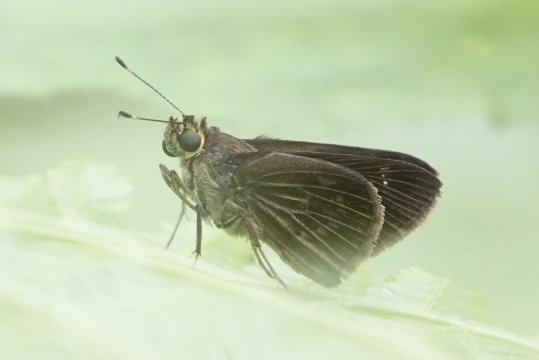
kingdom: Animalia
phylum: Arthropoda
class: Insecta
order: Lepidoptera
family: Hesperiidae
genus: Cymaenes
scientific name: Cymaenes tripunctus
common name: Three-spotted Skipper
